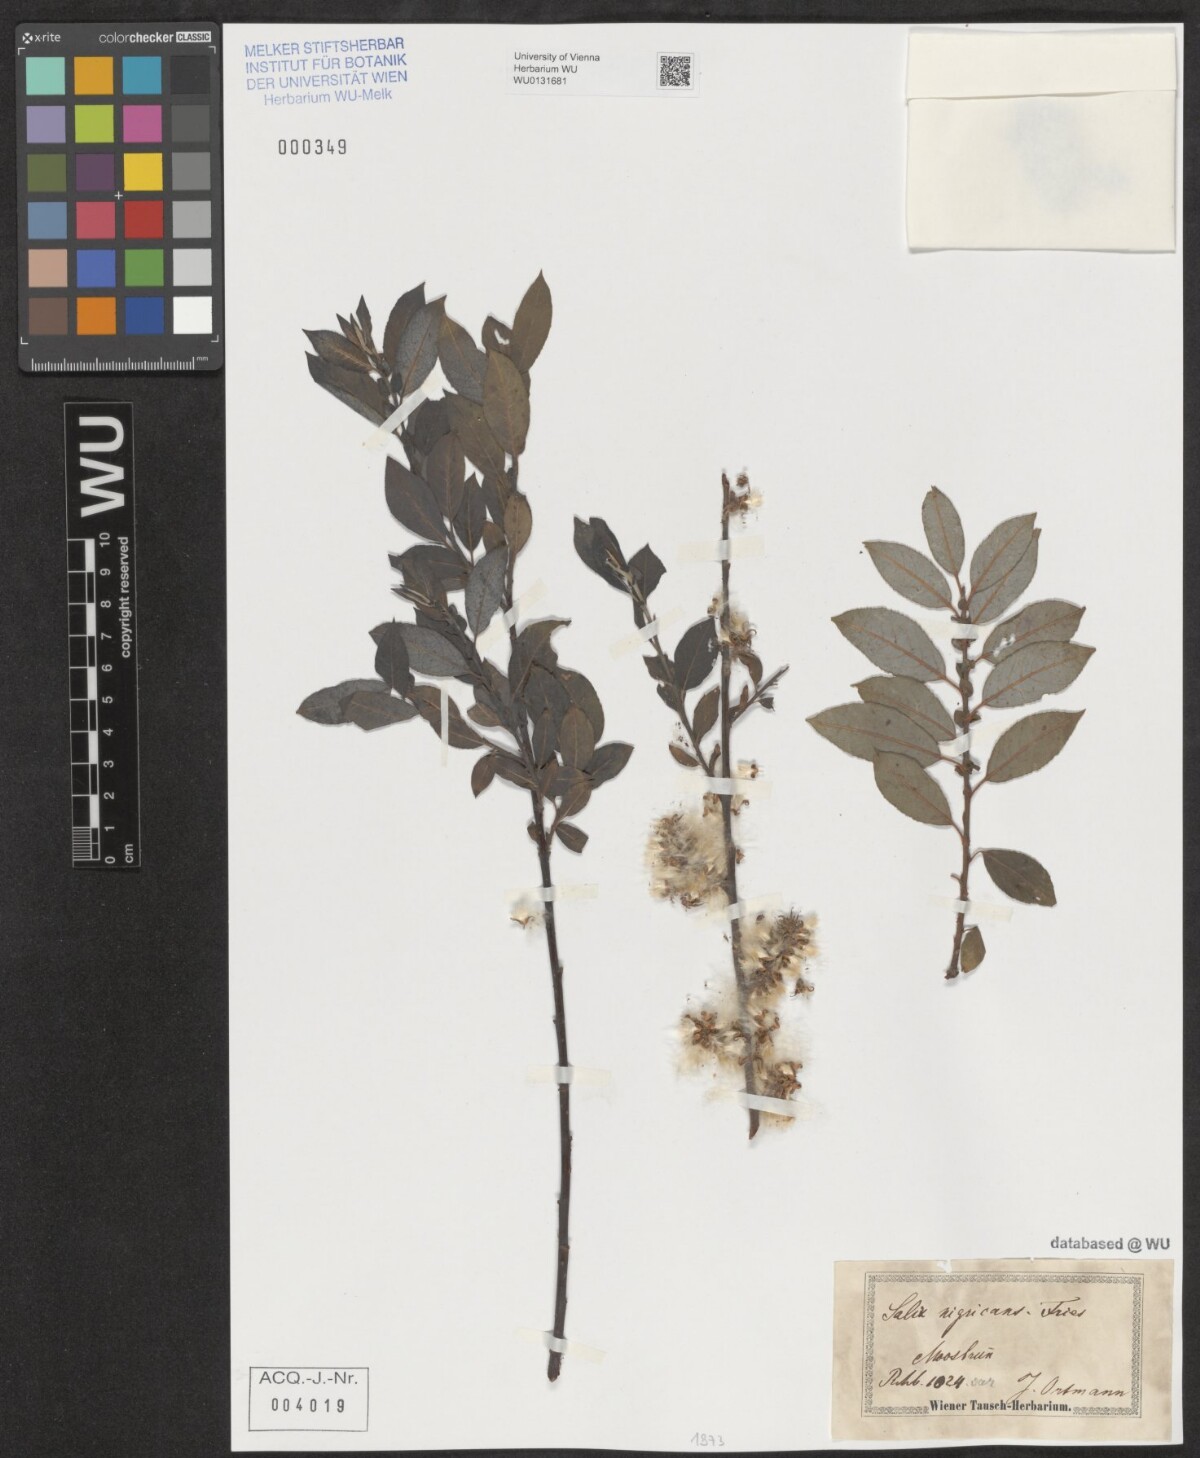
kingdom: Plantae
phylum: Tracheophyta
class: Magnoliopsida
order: Malpighiales
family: Salicaceae
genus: Salix
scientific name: Salix myrsinifolia
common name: Dark-leaved willow
